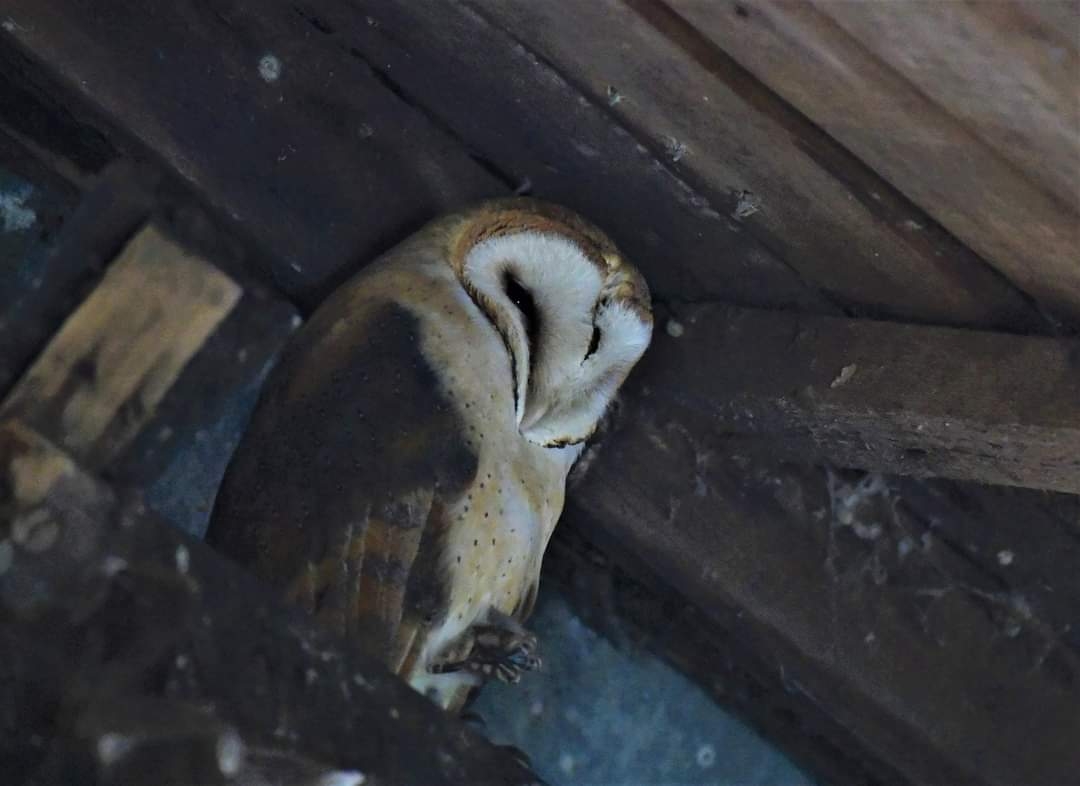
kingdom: Animalia
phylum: Chordata
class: Aves
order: Strigiformes
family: Tytonidae
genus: Tyto
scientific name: Tyto alba
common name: Slørugle
